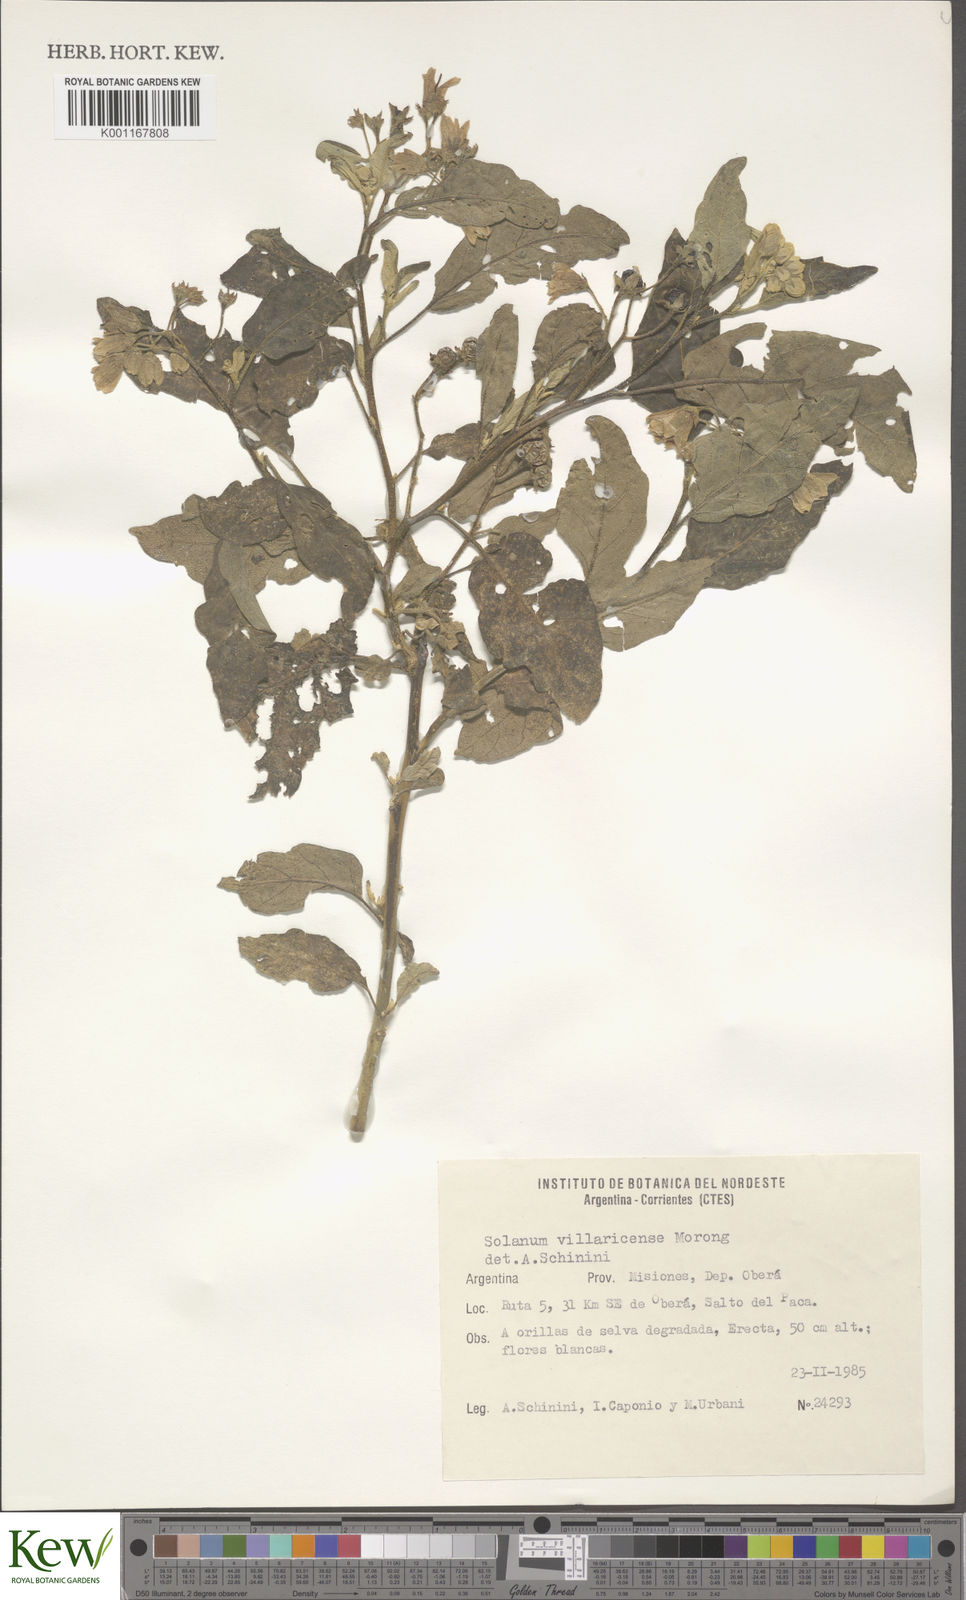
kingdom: Plantae
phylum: Tracheophyta
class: Magnoliopsida
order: Solanales
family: Solanaceae
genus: Solanum
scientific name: Solanum guaraniticum
